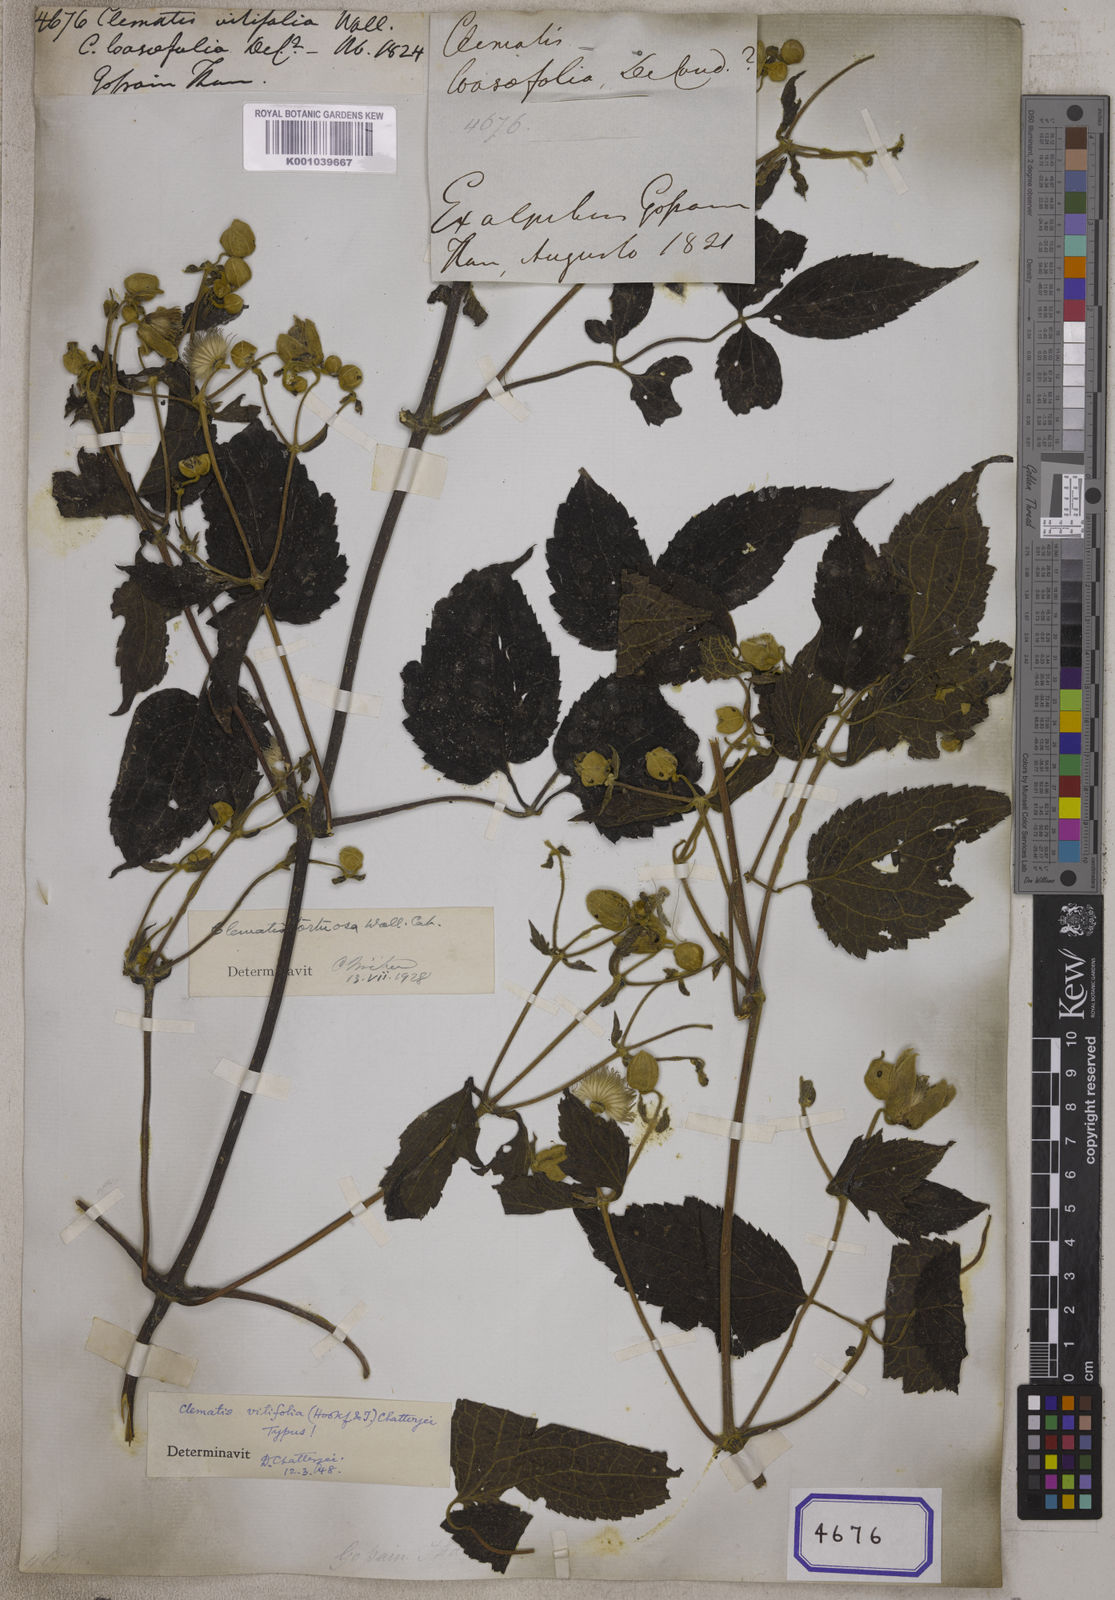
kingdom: Plantae
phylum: Tracheophyta
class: Magnoliopsida
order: Ranunculales
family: Ranunculaceae
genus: Clematis
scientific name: Clematis tortuosa
